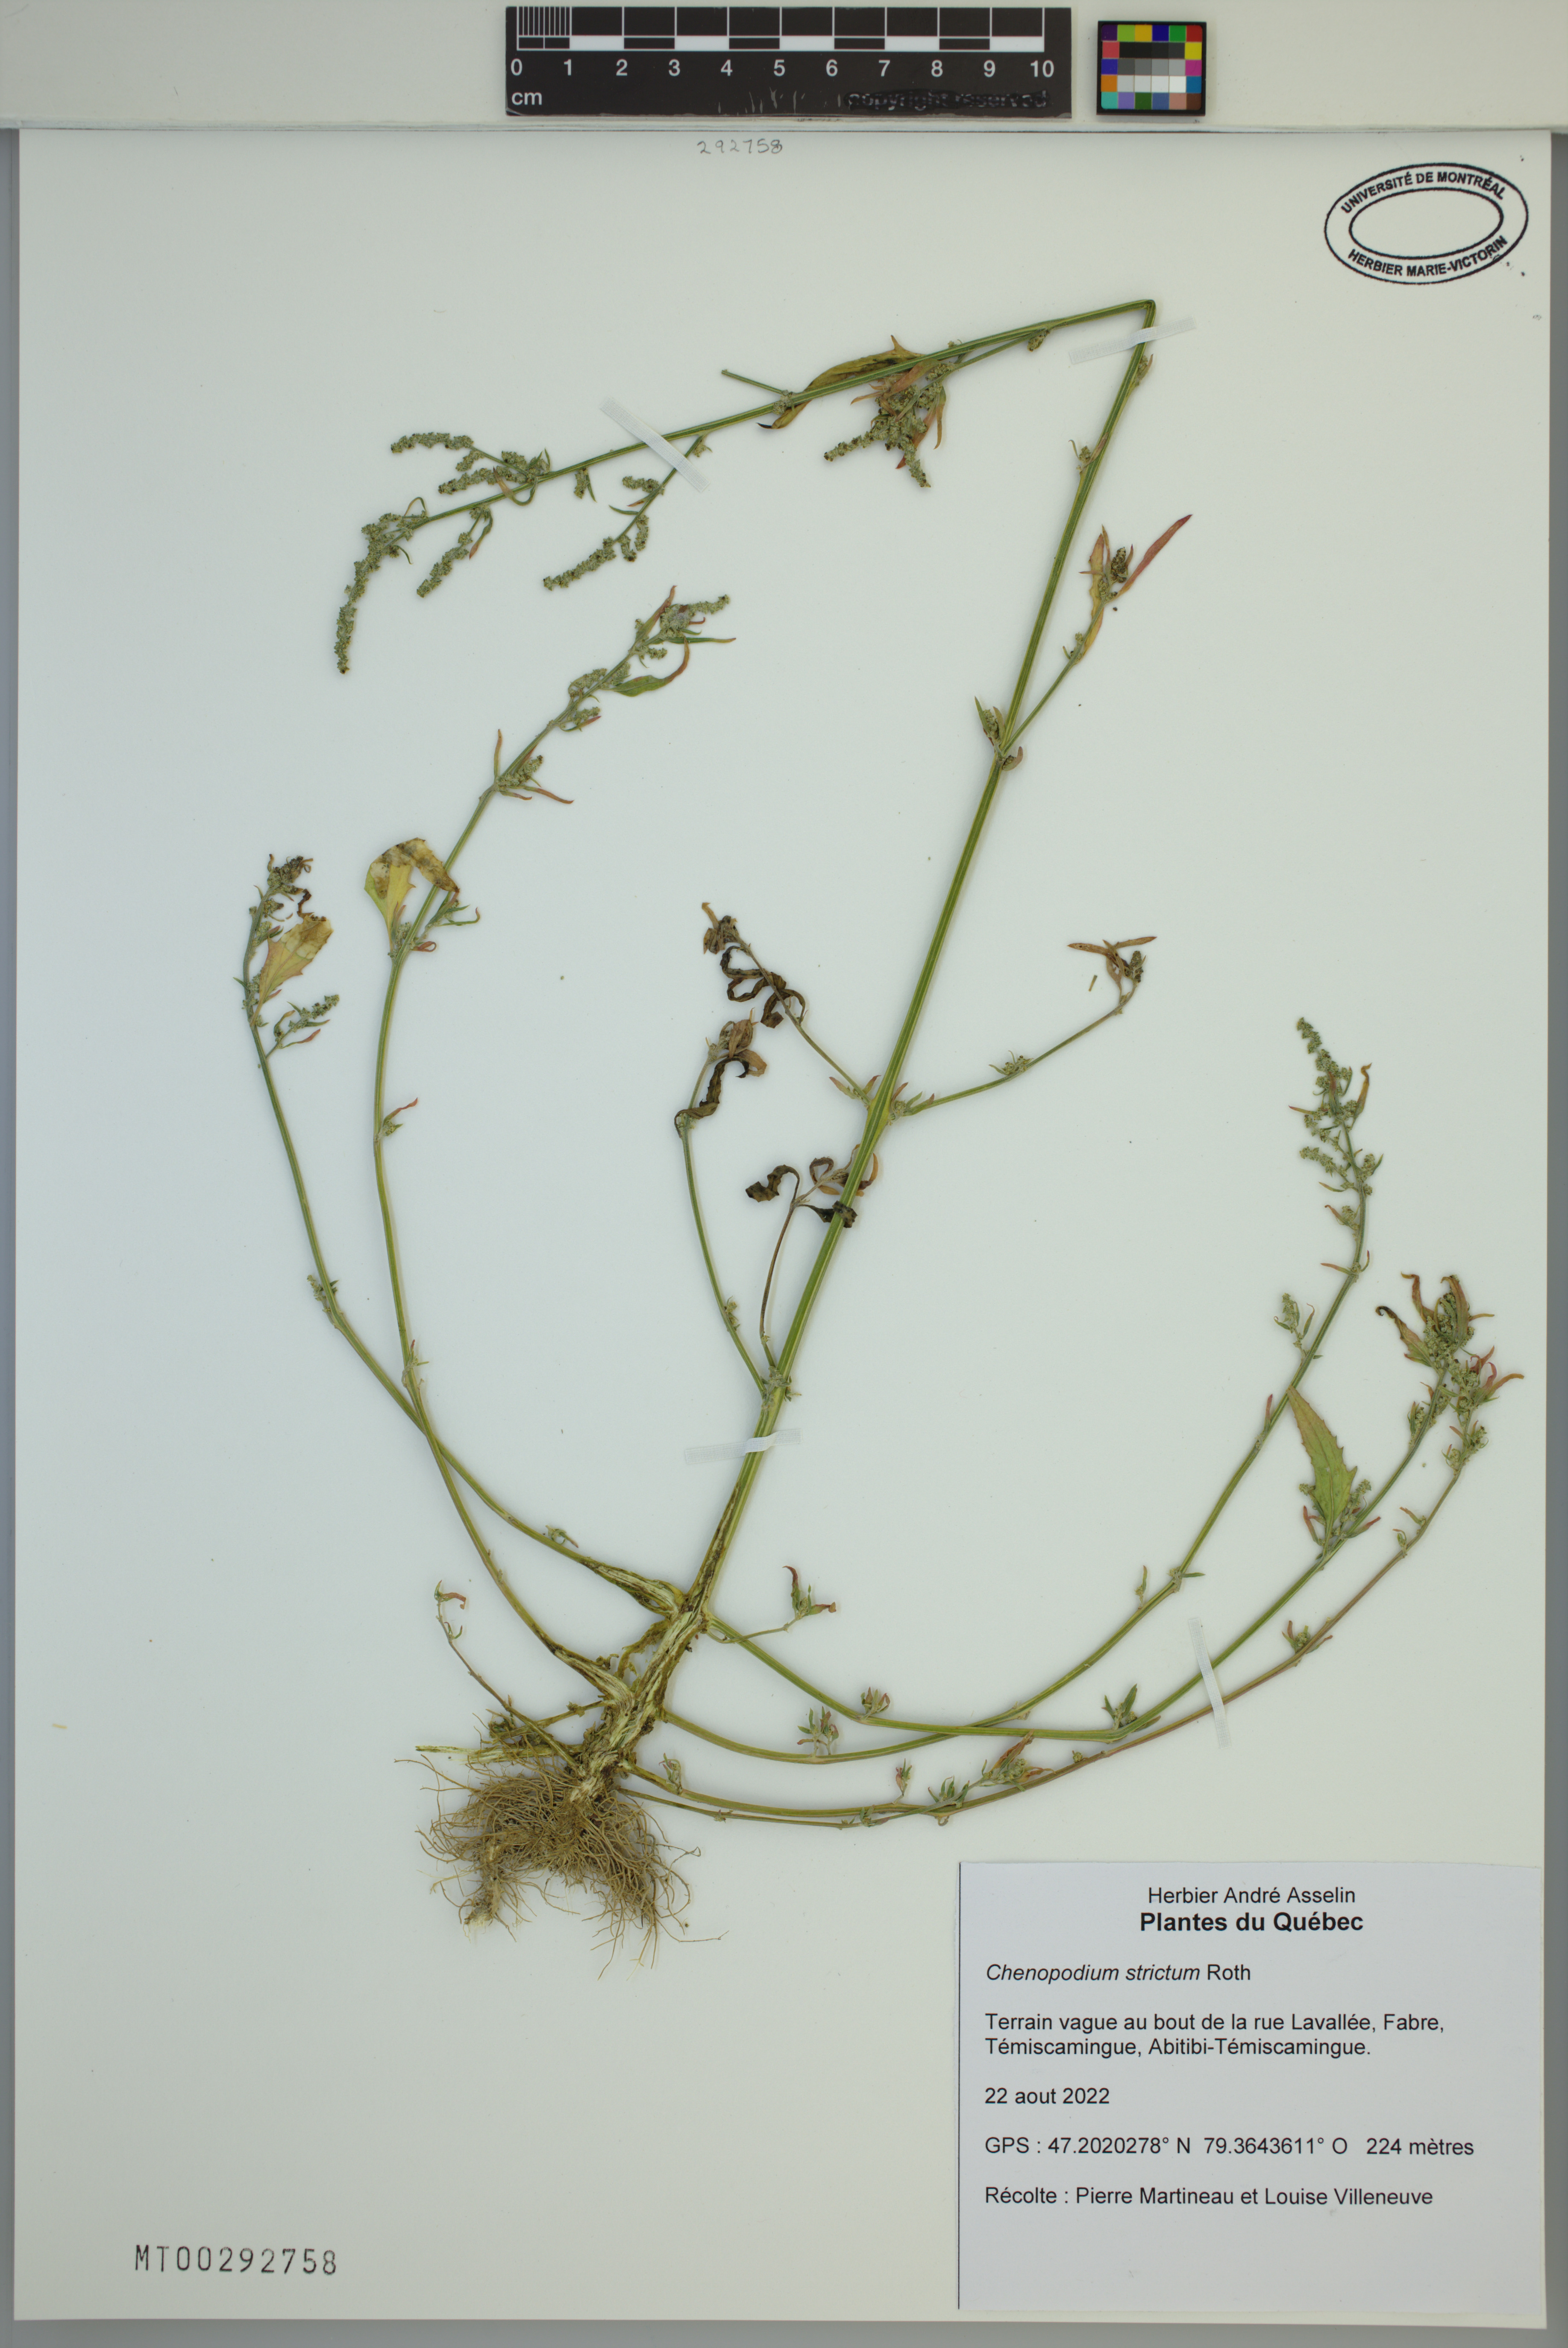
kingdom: Plantae
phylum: Tracheophyta
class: Magnoliopsida
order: Caryophyllales
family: Amaranthaceae
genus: Chenopodium
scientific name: Chenopodium album
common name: Fat-hen
